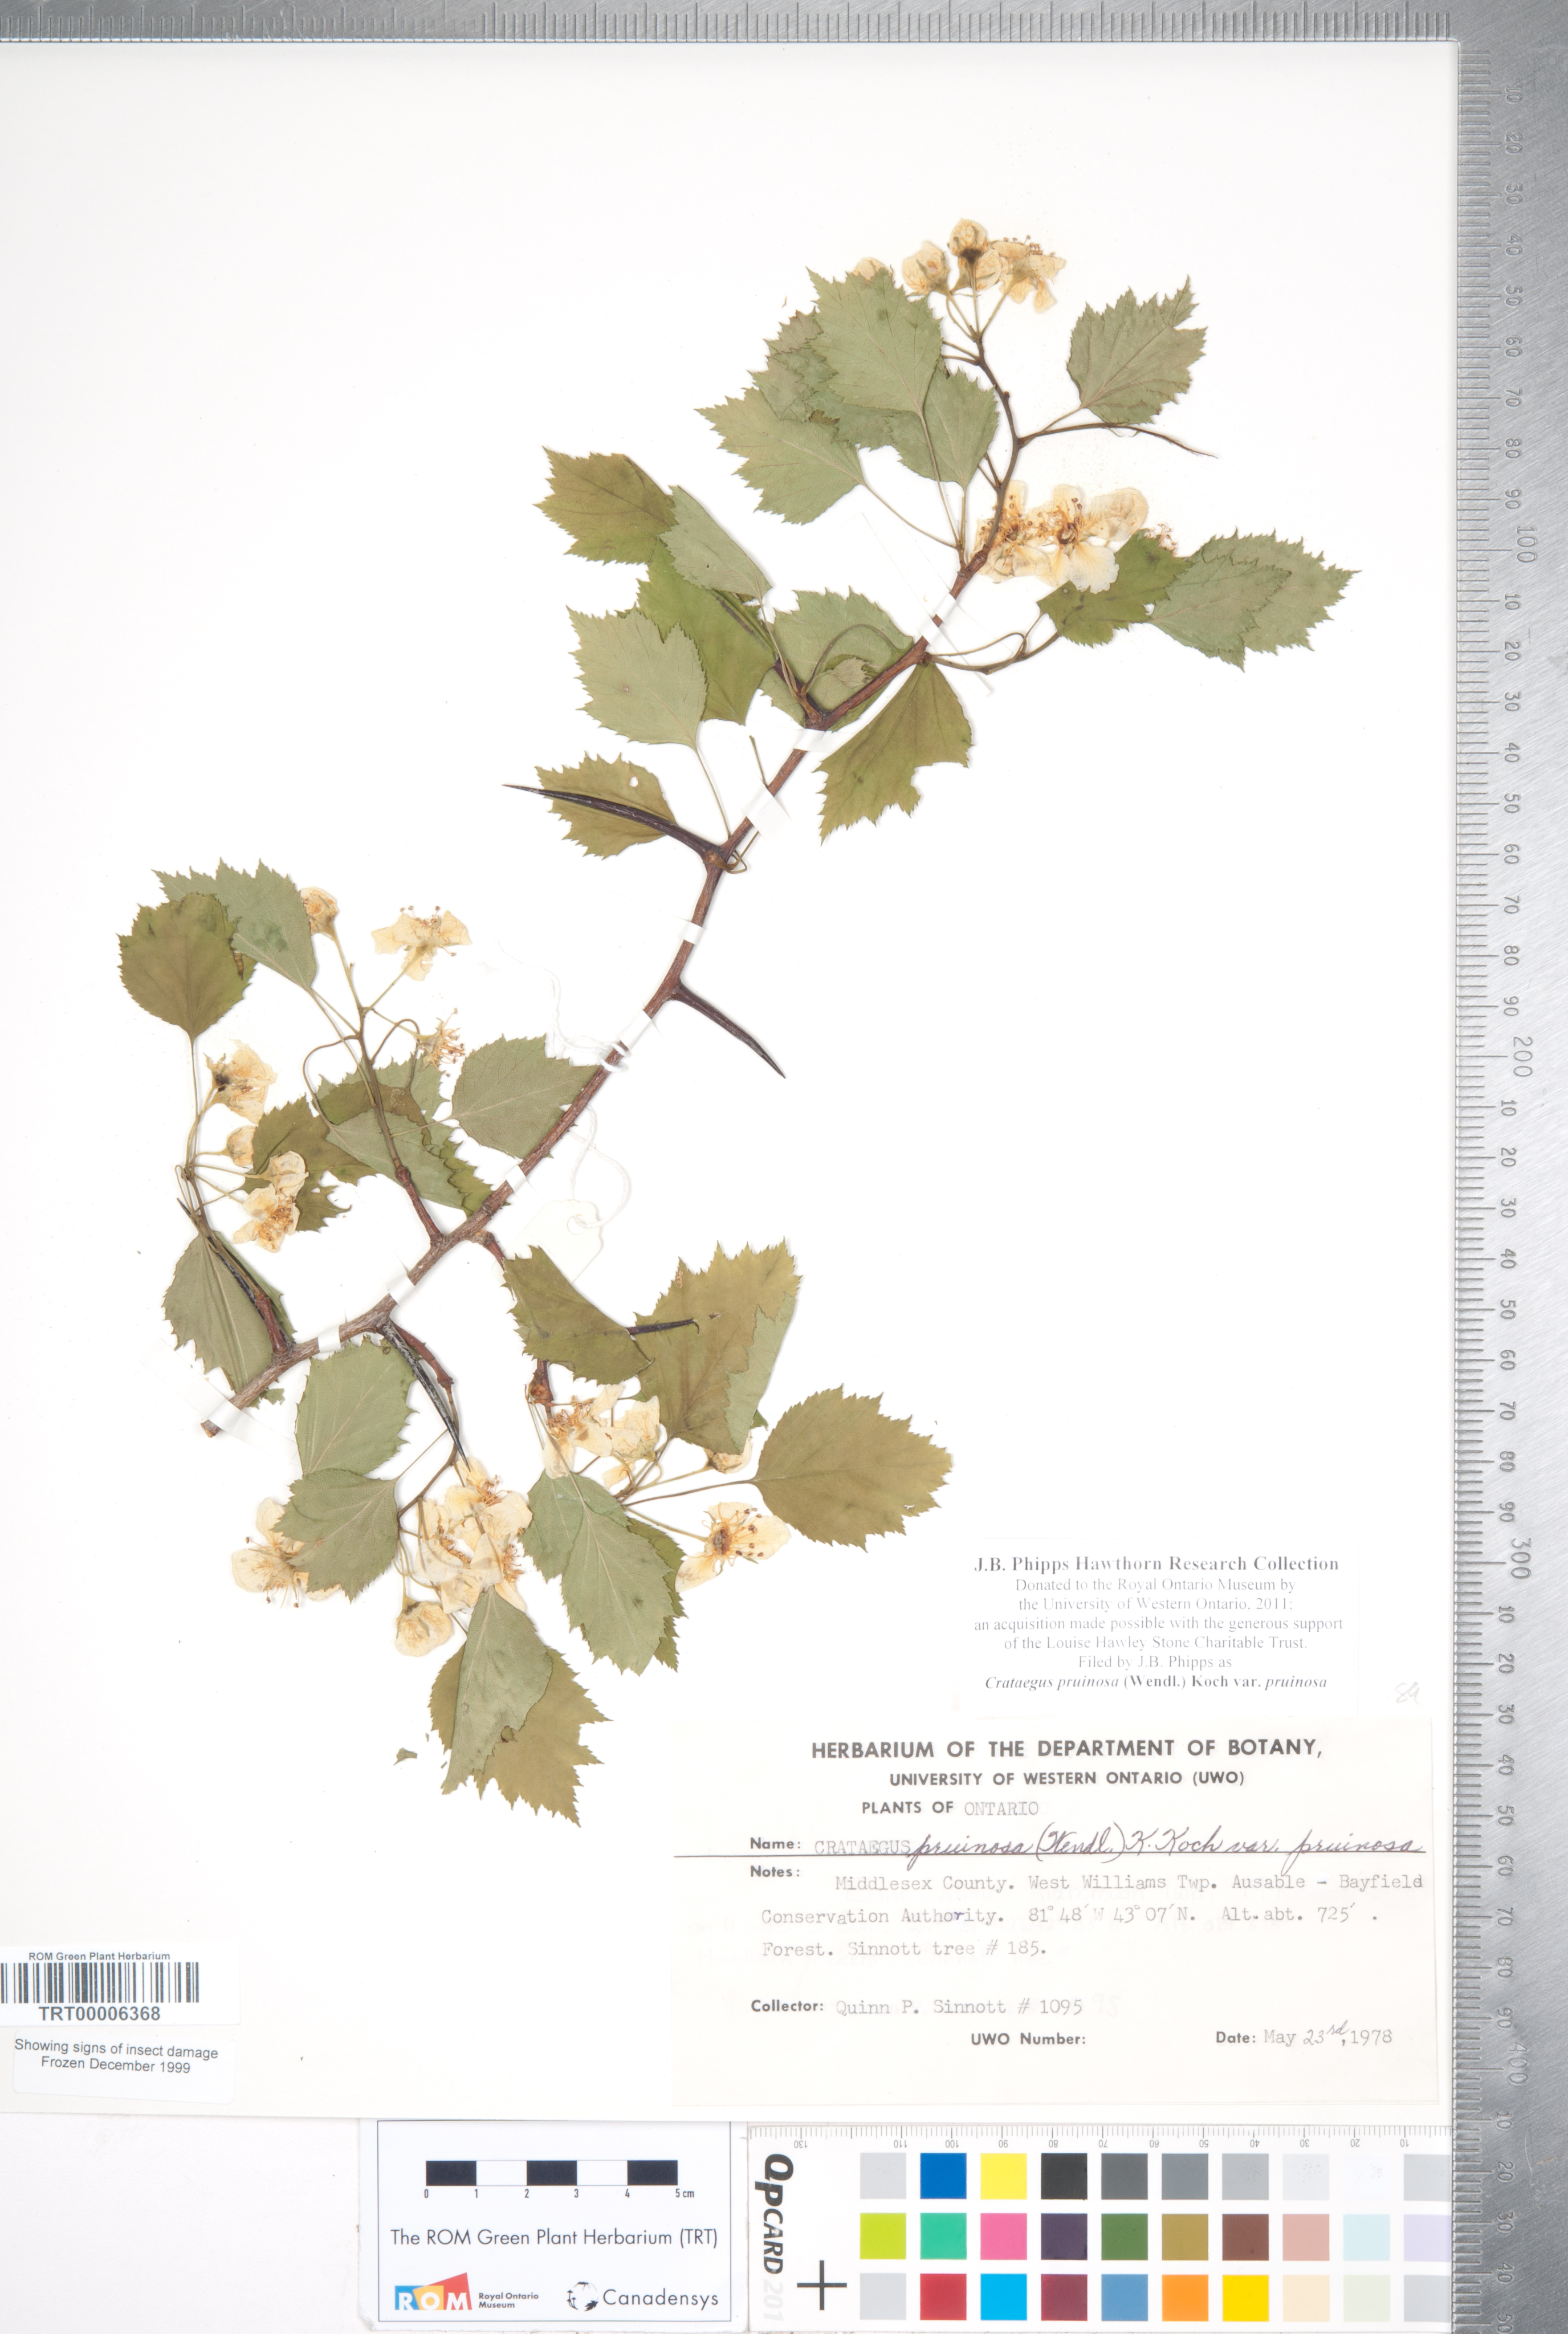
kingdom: Plantae
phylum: Tracheophyta
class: Magnoliopsida
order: Rosales
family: Rosaceae
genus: Crataegus
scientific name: Crataegus pruinosa
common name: Waxy-fruit hawthorn
